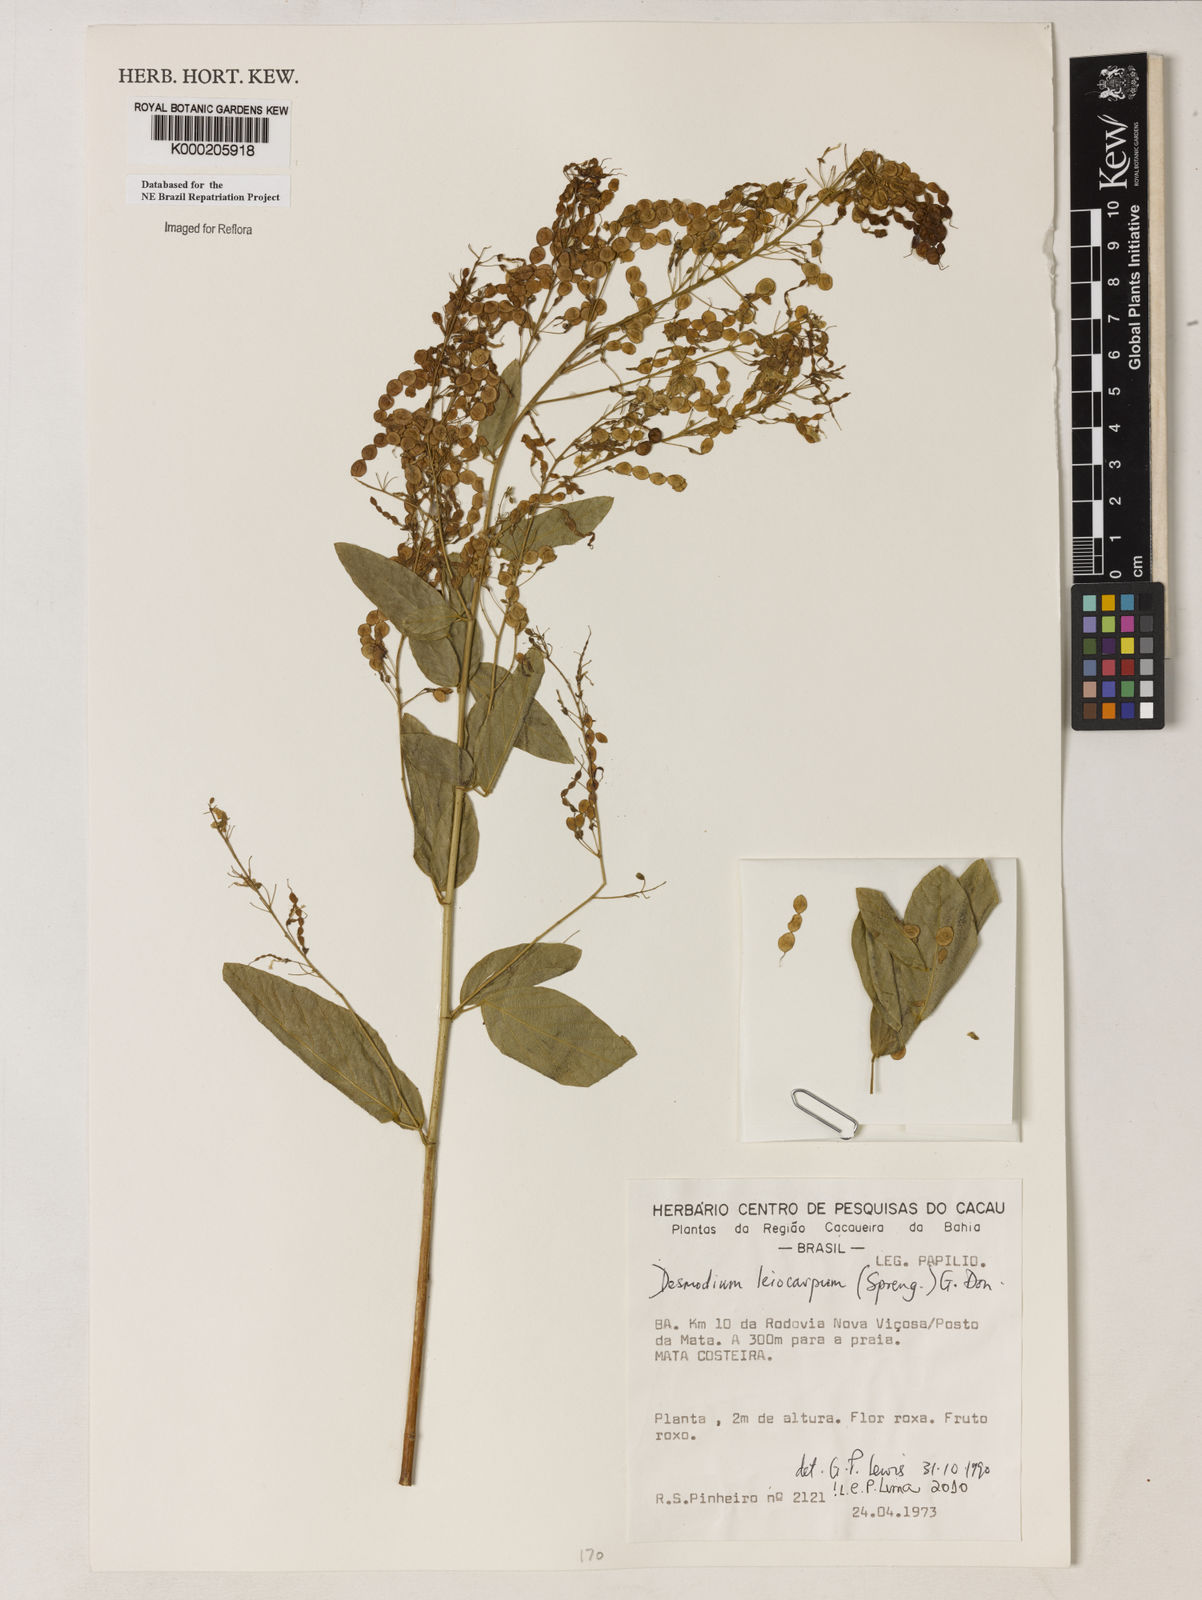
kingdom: Plantae
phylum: Tracheophyta
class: Magnoliopsida
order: Fabales
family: Fabaceae
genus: Desmodium
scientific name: Desmodium leiocarpum
